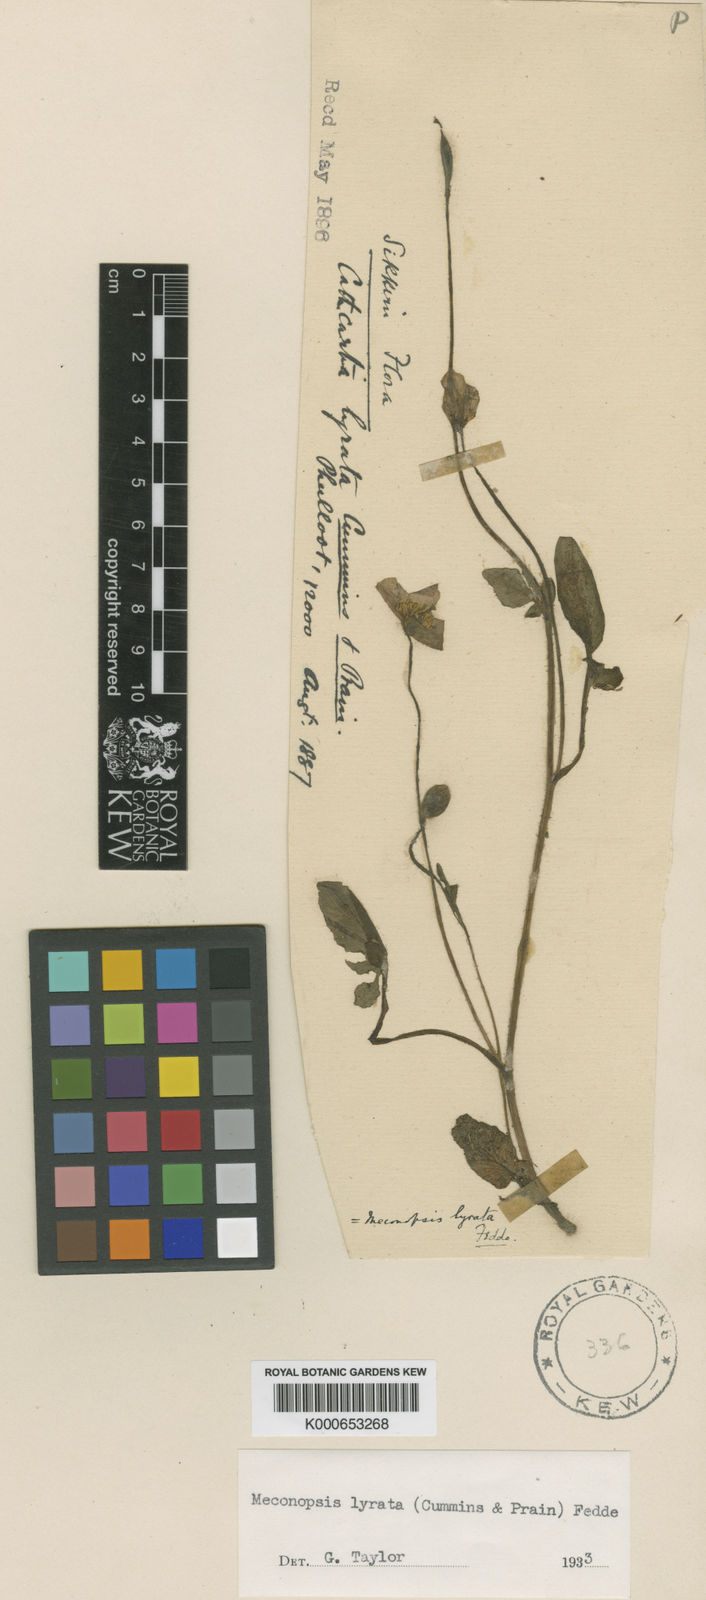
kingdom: Plantae
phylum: Tracheophyta
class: Magnoliopsida
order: Ranunculales
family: Papaveraceae
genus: Meconopsis
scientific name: Meconopsis lyrata
